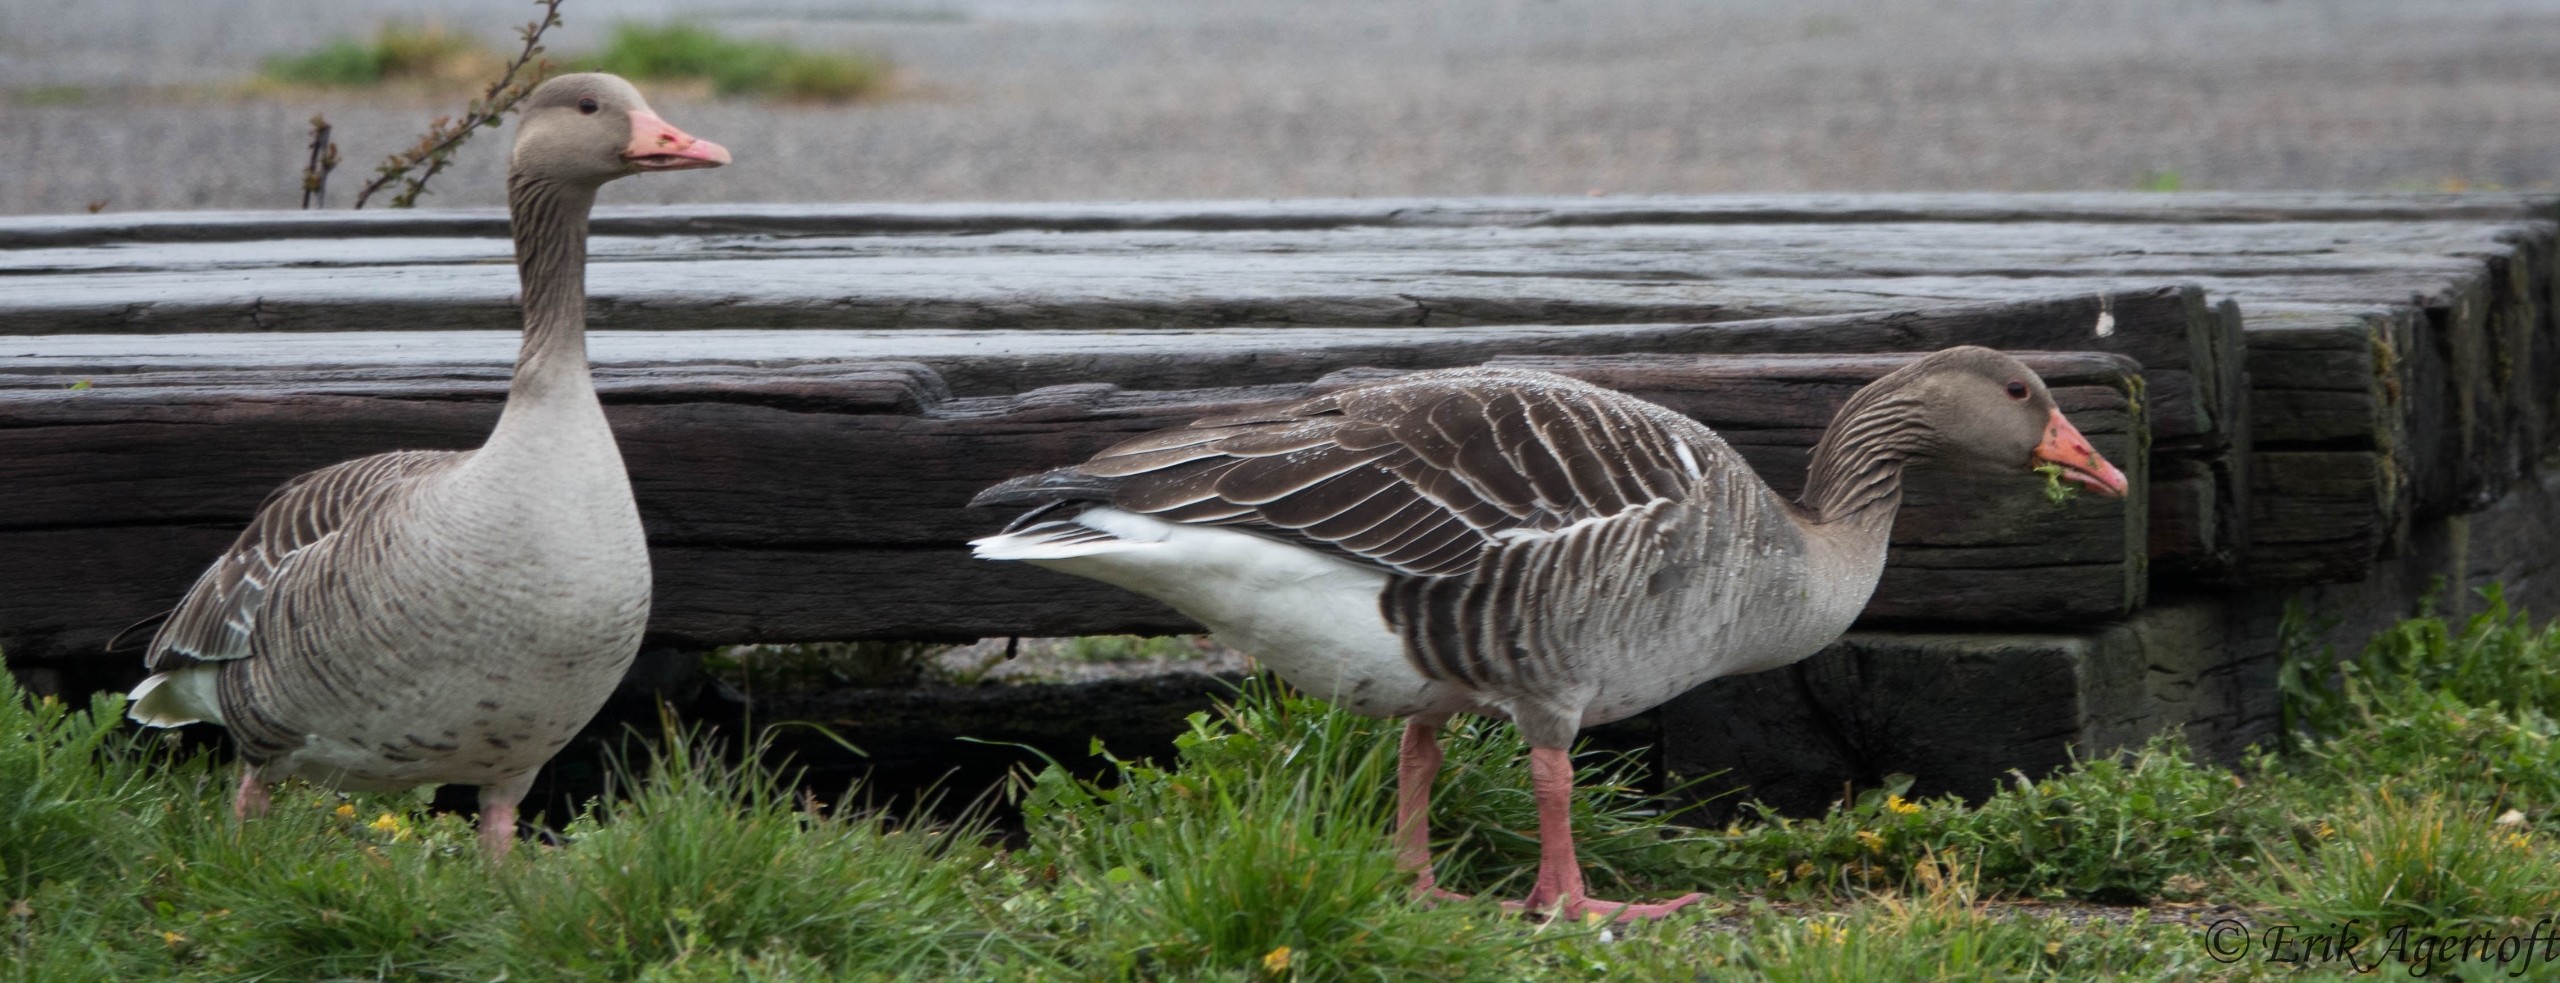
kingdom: Animalia
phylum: Chordata
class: Aves
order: Anseriformes
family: Anatidae
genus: Anser
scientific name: Anser anser
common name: Grågås
